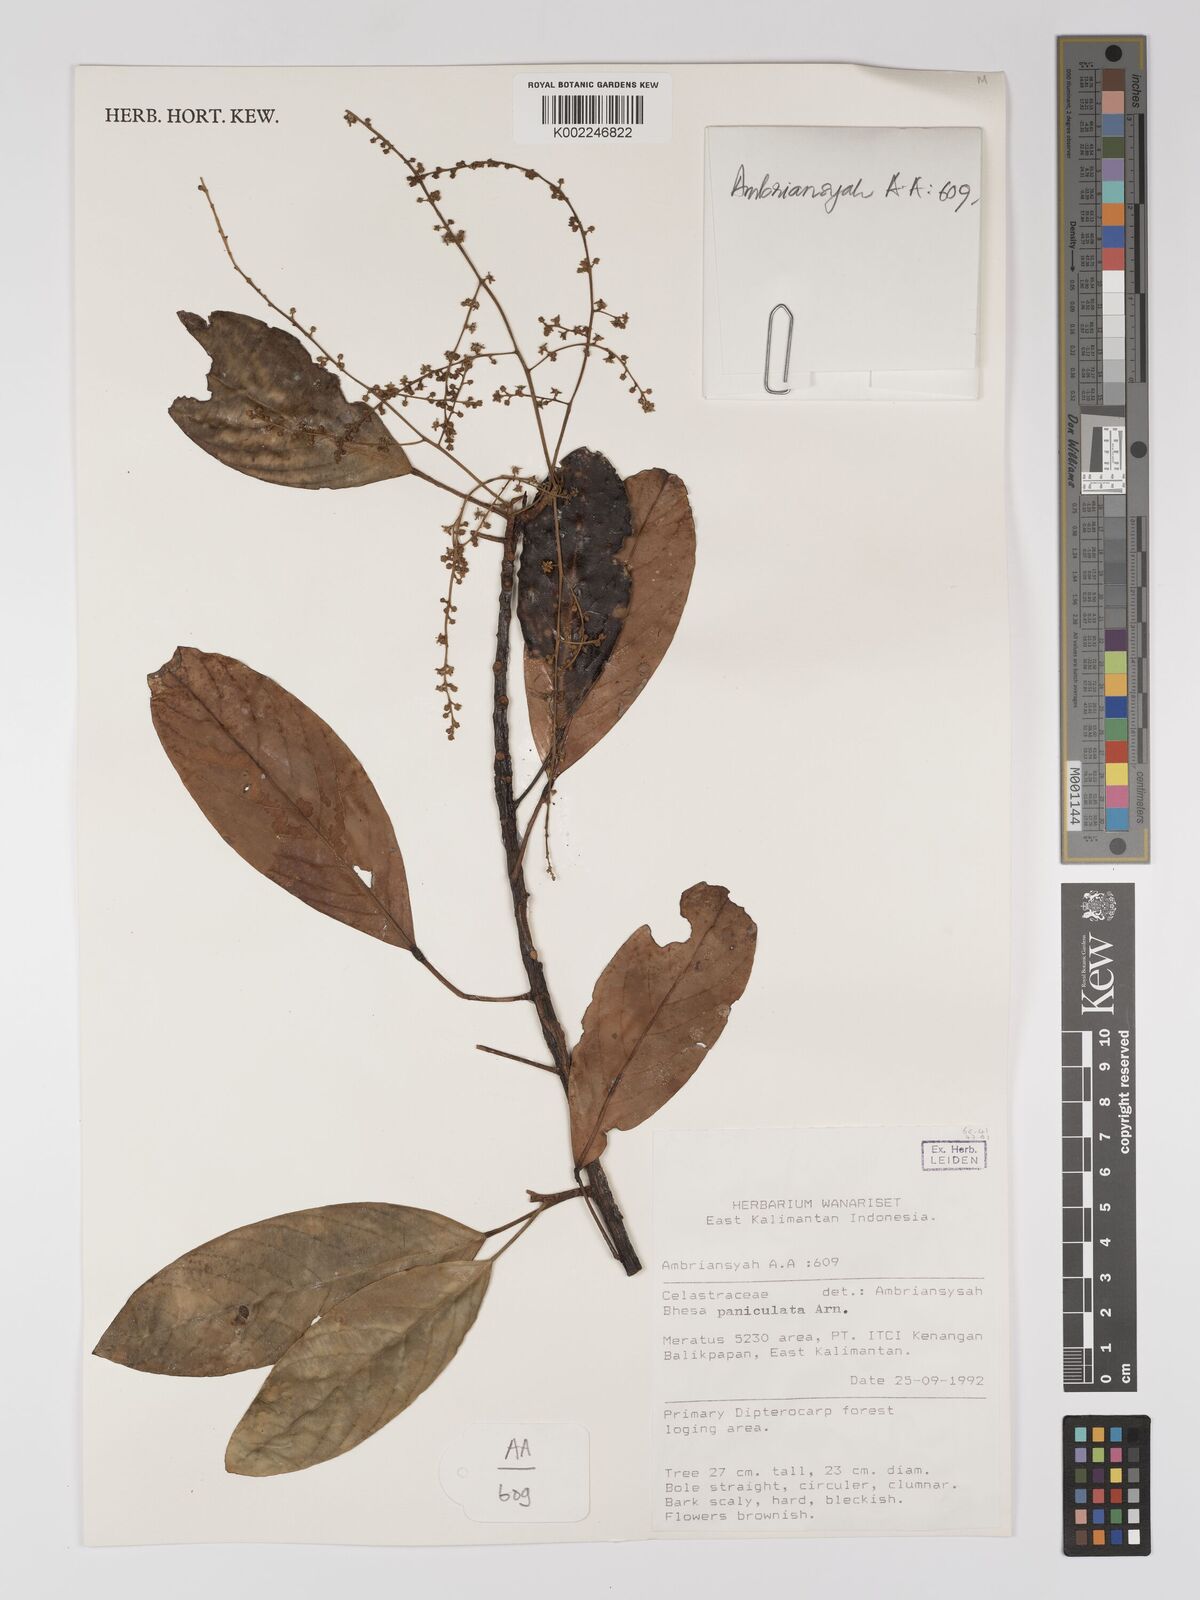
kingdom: Plantae
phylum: Tracheophyta
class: Magnoliopsida
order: Malpighiales
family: Centroplacaceae
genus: Bhesa
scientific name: Bhesa paniculata
